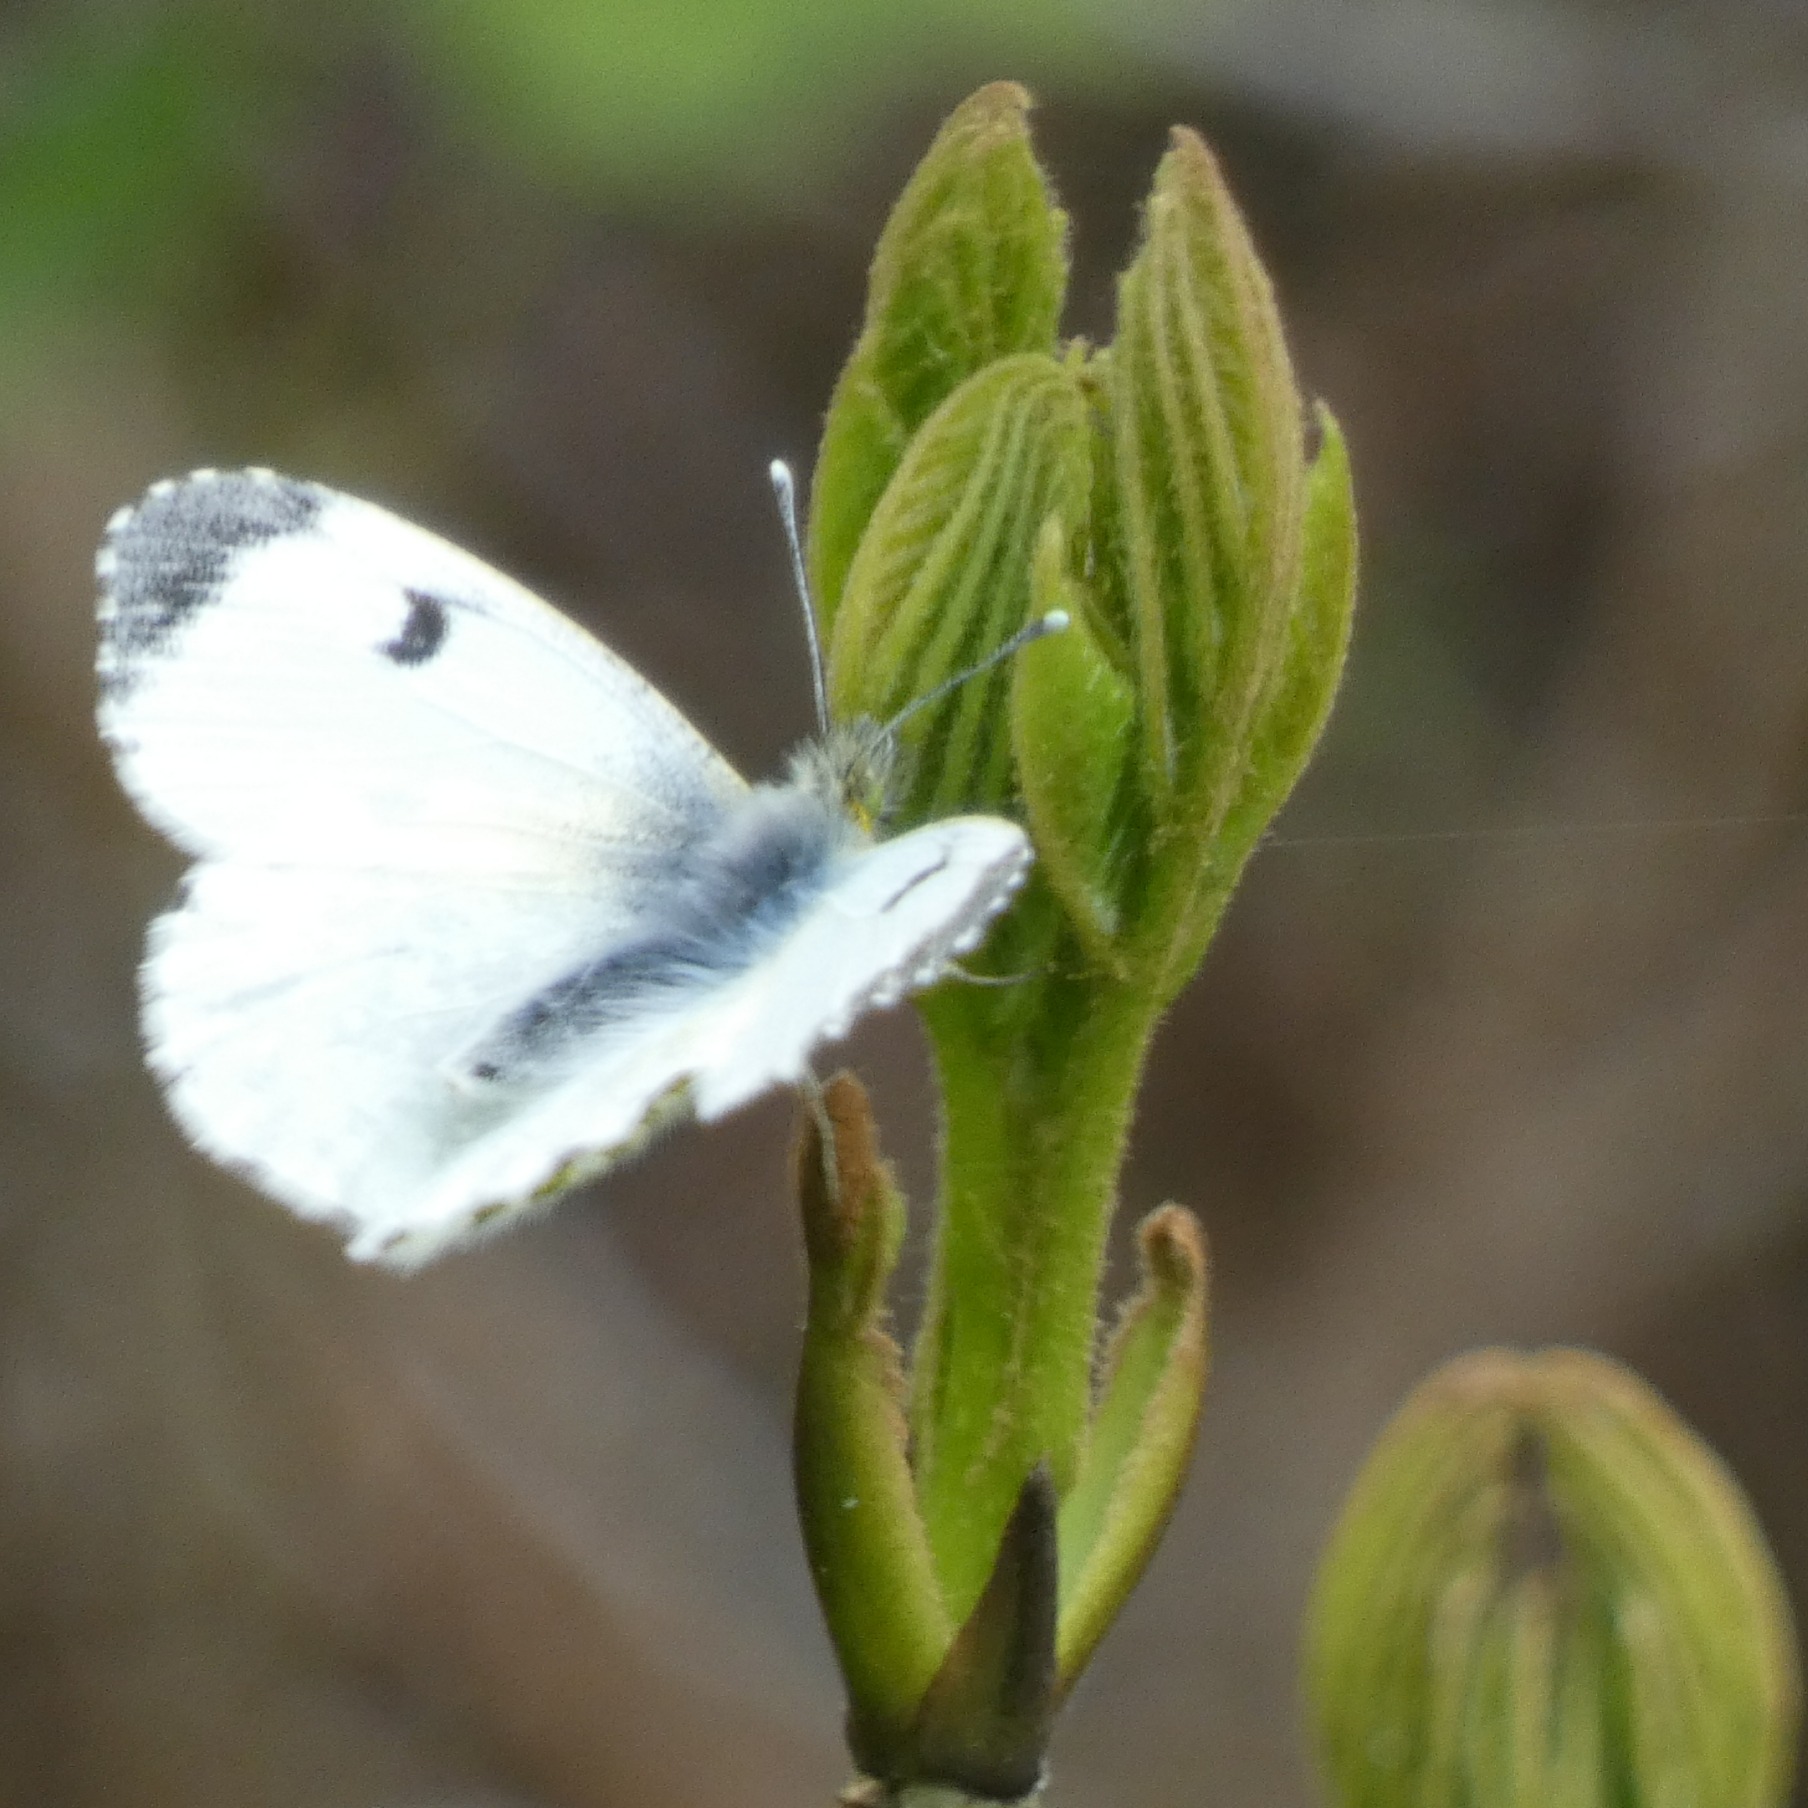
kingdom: Animalia
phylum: Arthropoda
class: Insecta
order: Lepidoptera
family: Pieridae
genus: Anthocharis
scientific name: Anthocharis cardamines
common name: Aurora
